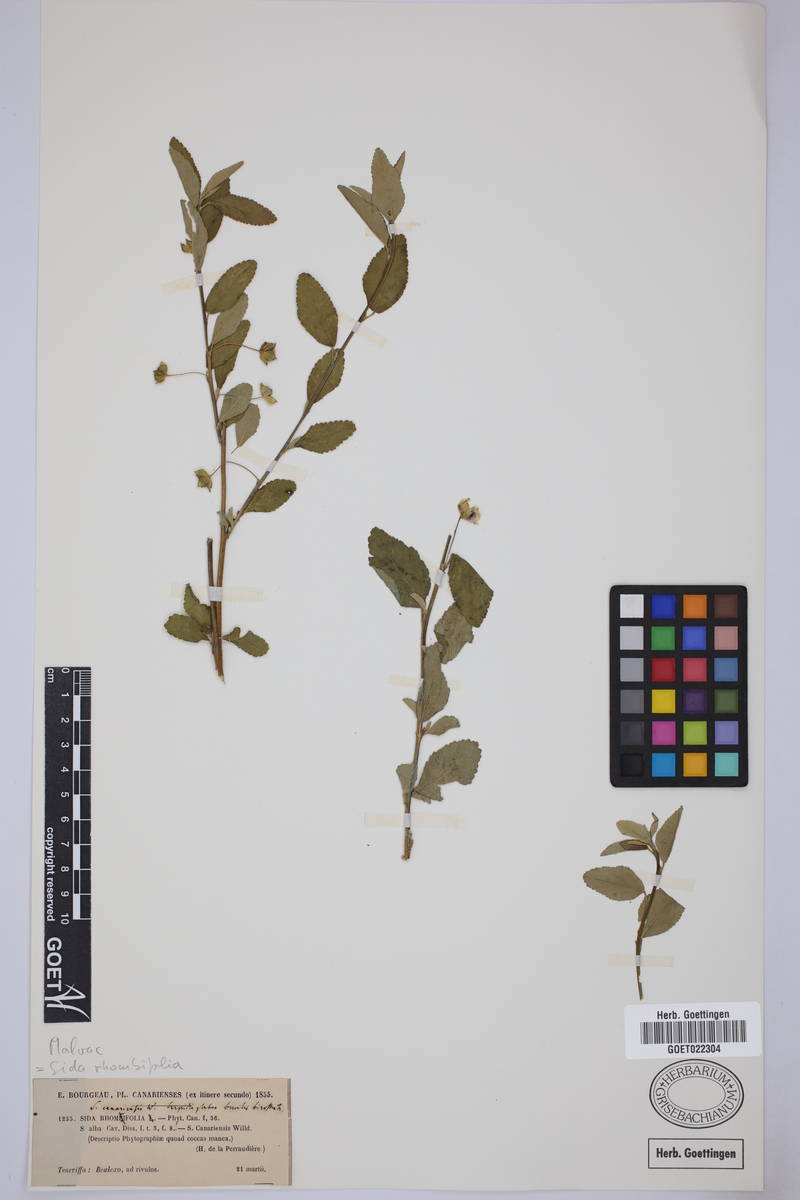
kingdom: Plantae
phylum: Tracheophyta
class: Magnoliopsida
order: Malvales
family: Malvaceae
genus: Sida
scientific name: Sida rhombifolia
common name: Queensland-hemp
